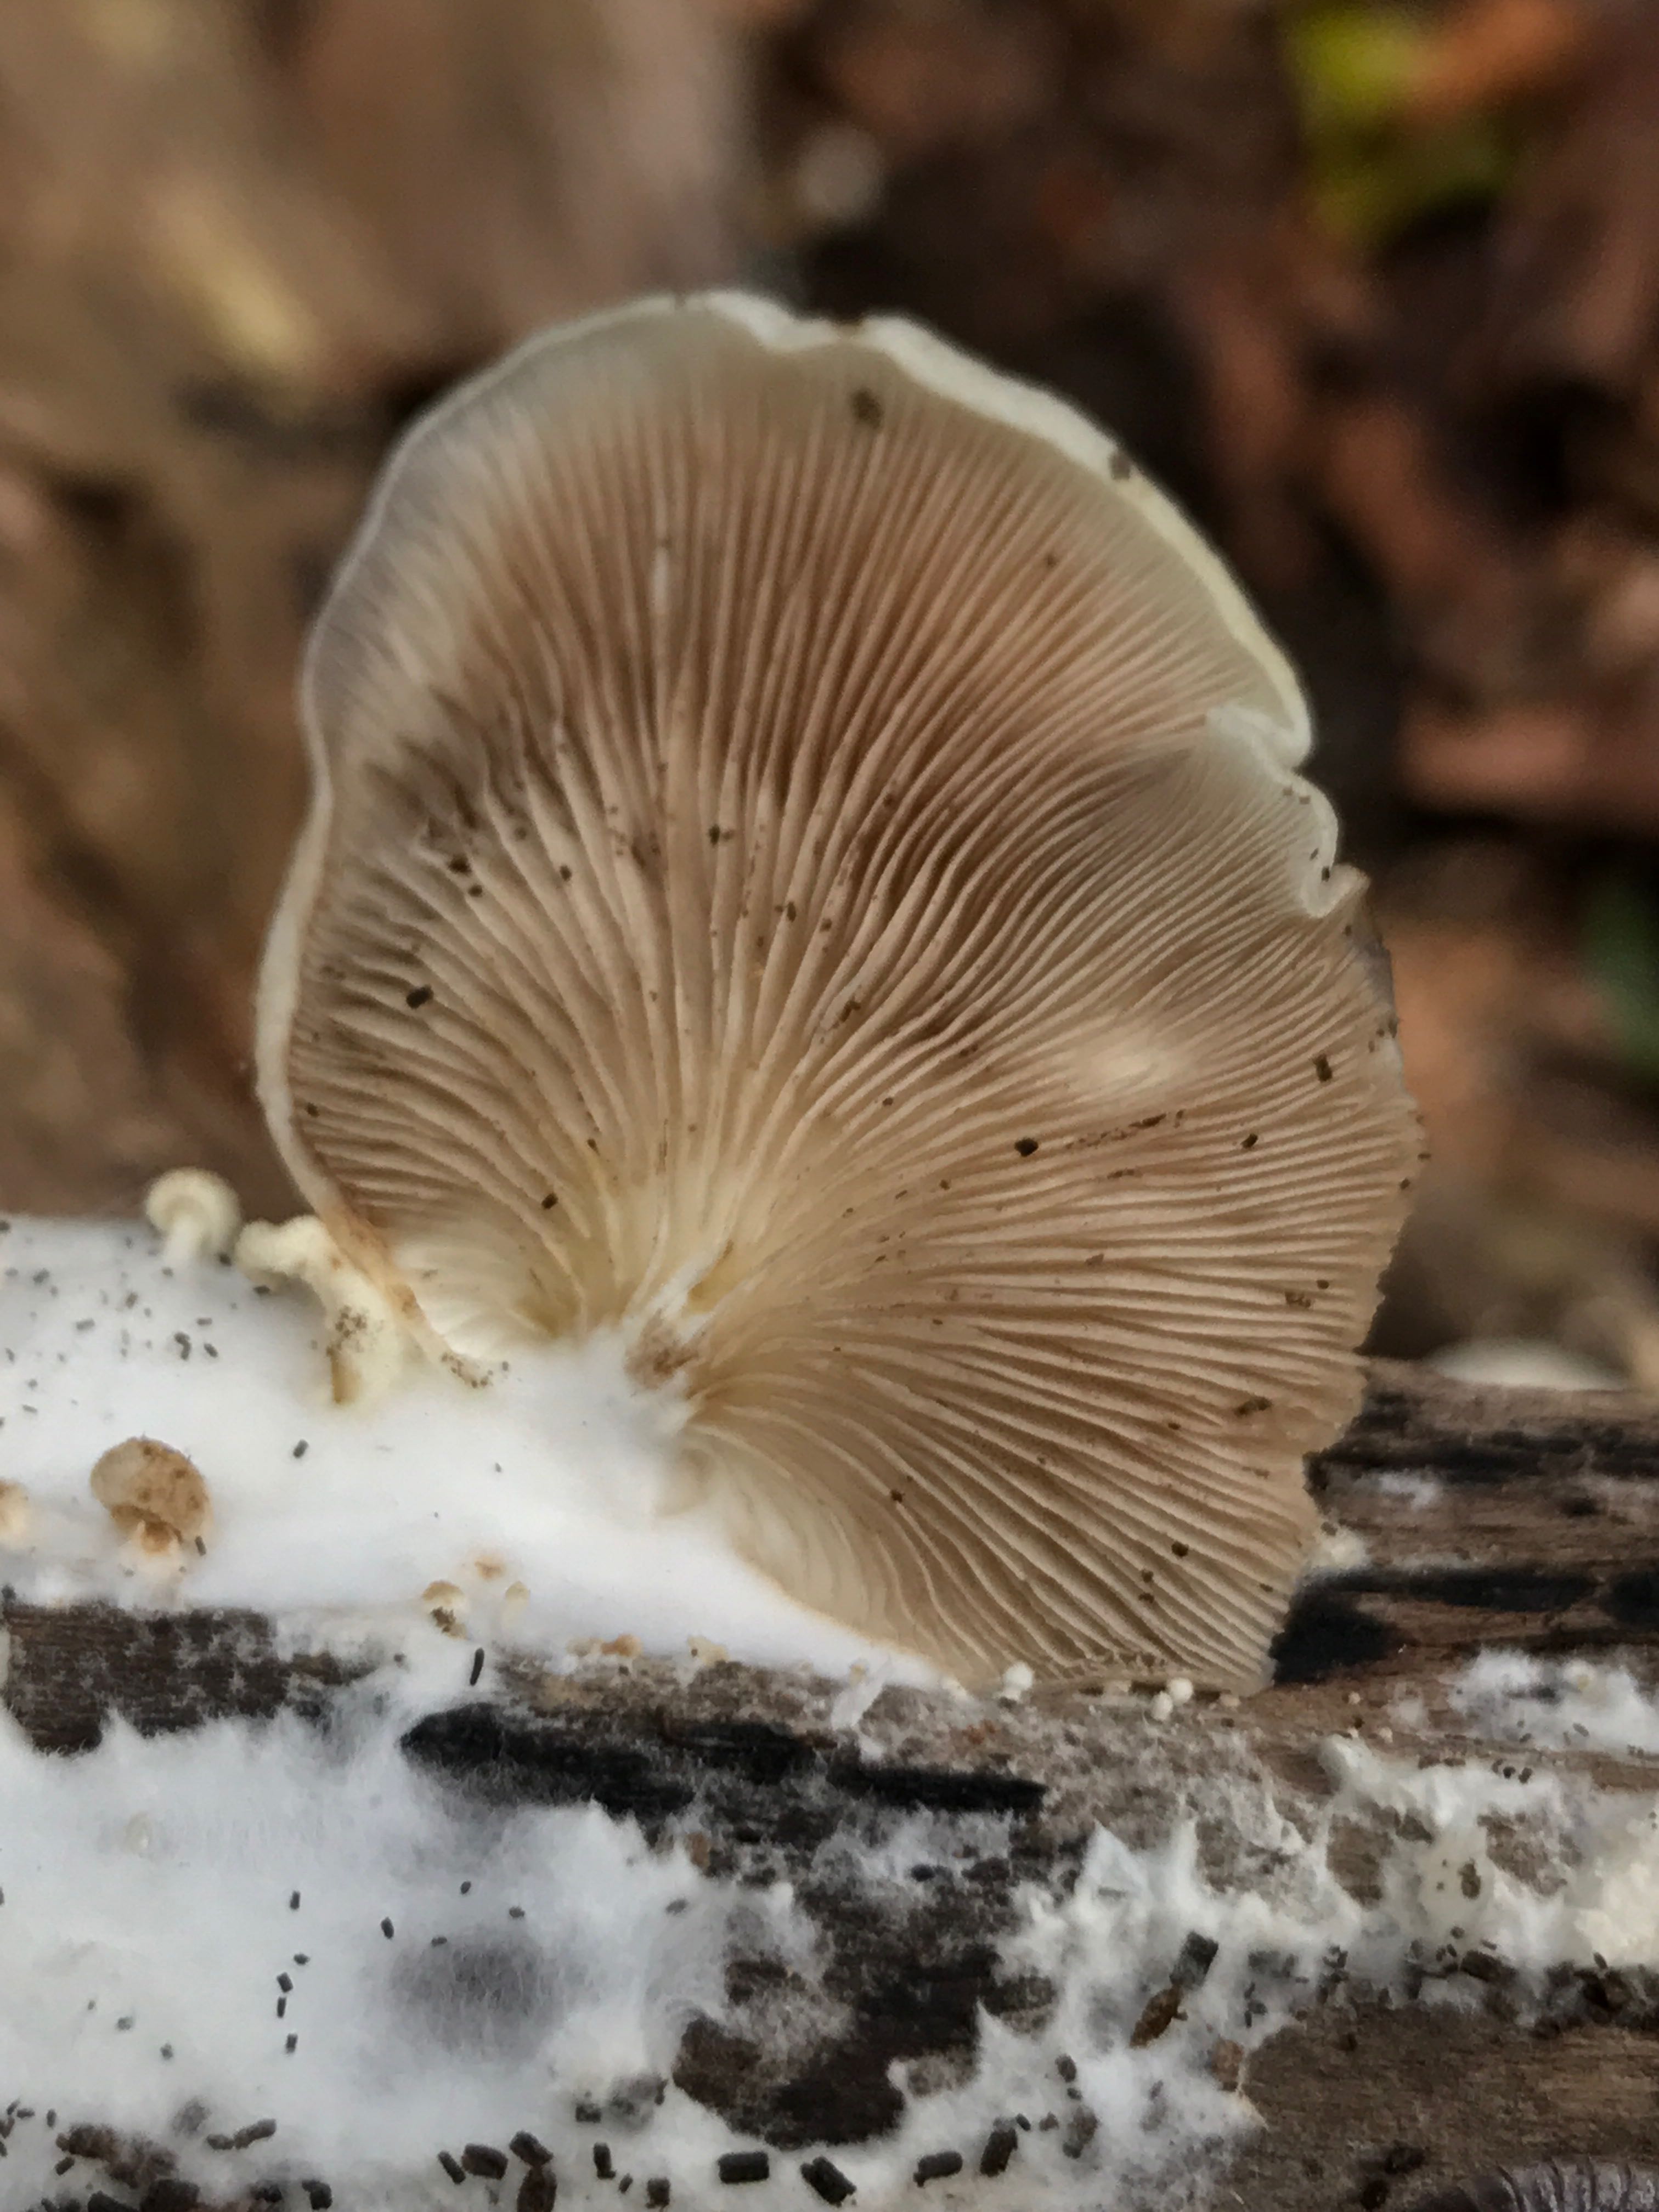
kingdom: Fungi
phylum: Basidiomycota
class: Agaricomycetes
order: Agaricales
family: Crepidotaceae
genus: Crepidotus
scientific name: Crepidotus mollis
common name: blød muslingesvamp
